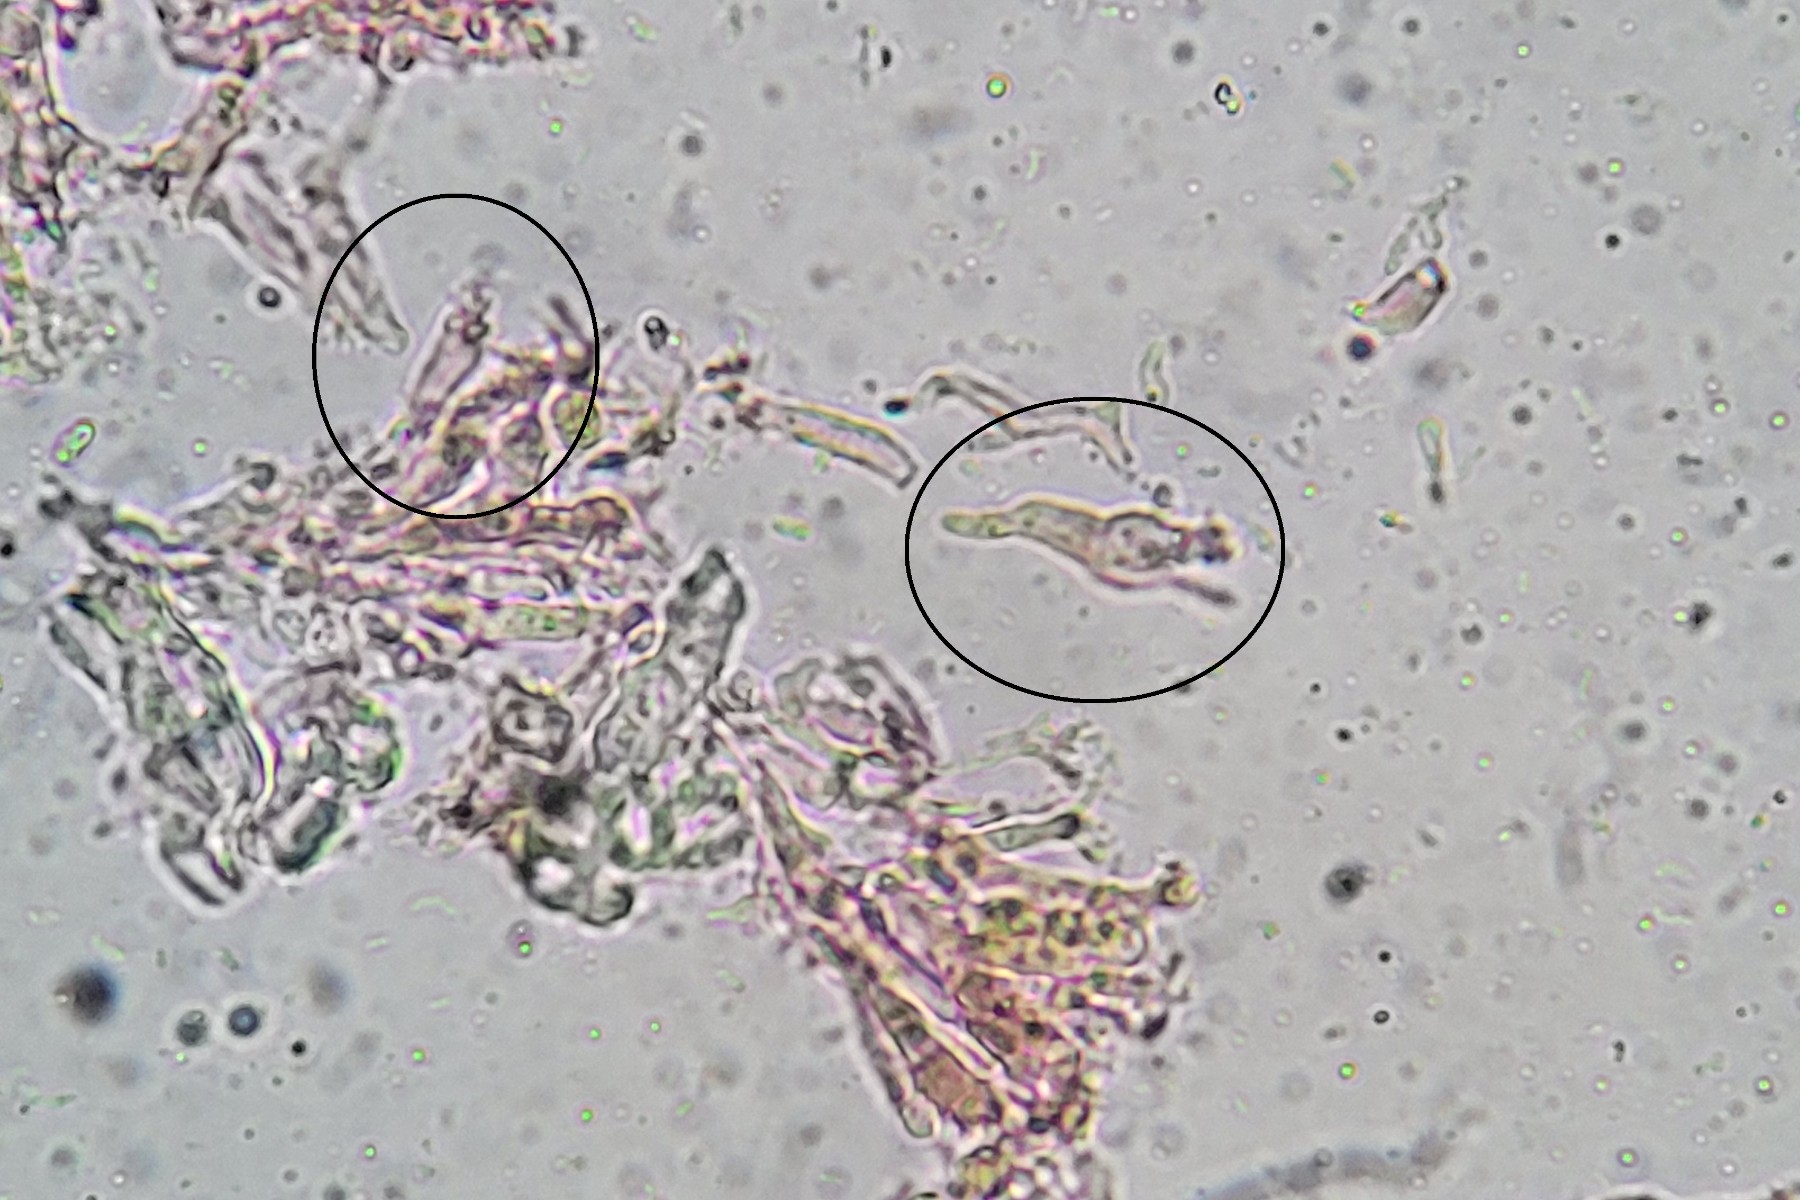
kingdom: Fungi
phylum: Basidiomycota
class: Tremellomycetes
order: Tremellales
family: Tremellaceae
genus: Tremella
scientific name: Tremella christiansenii
